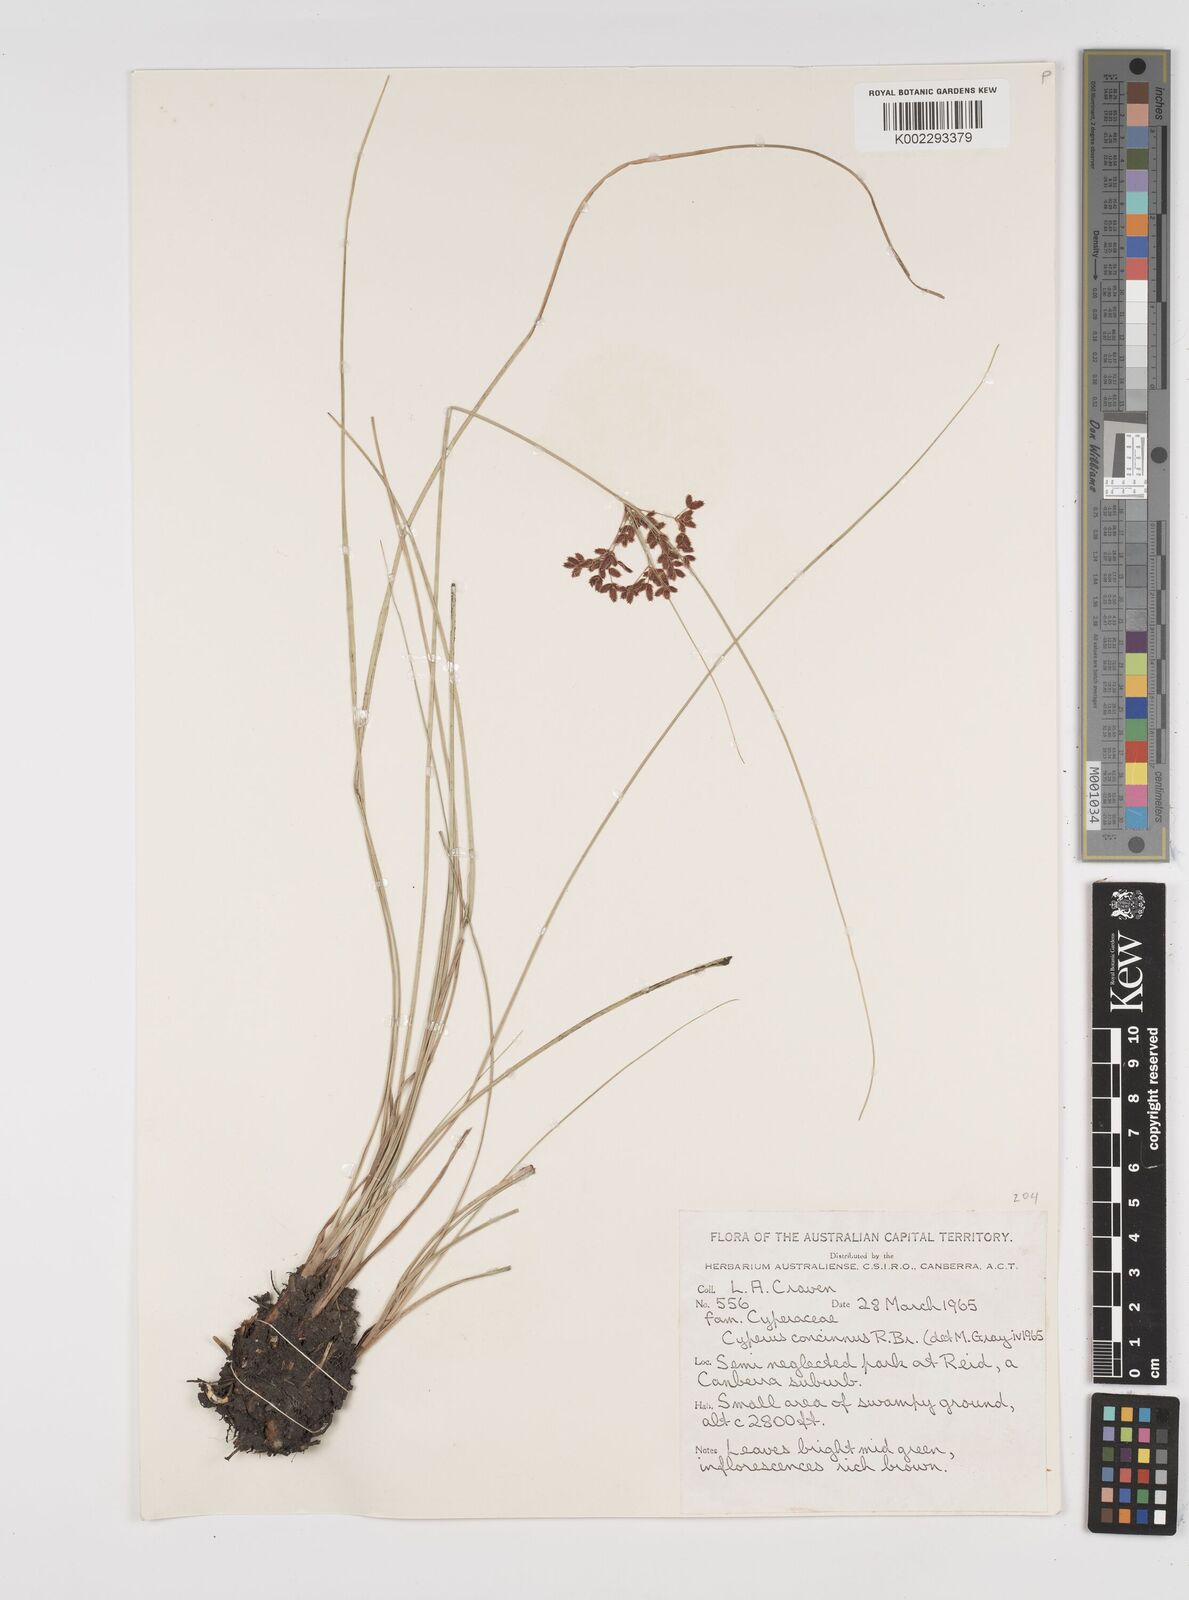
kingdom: Plantae
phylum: Tracheophyta
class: Liliopsida
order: Poales
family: Cyperaceae
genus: Cyperus
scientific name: Cyperus concinnus
